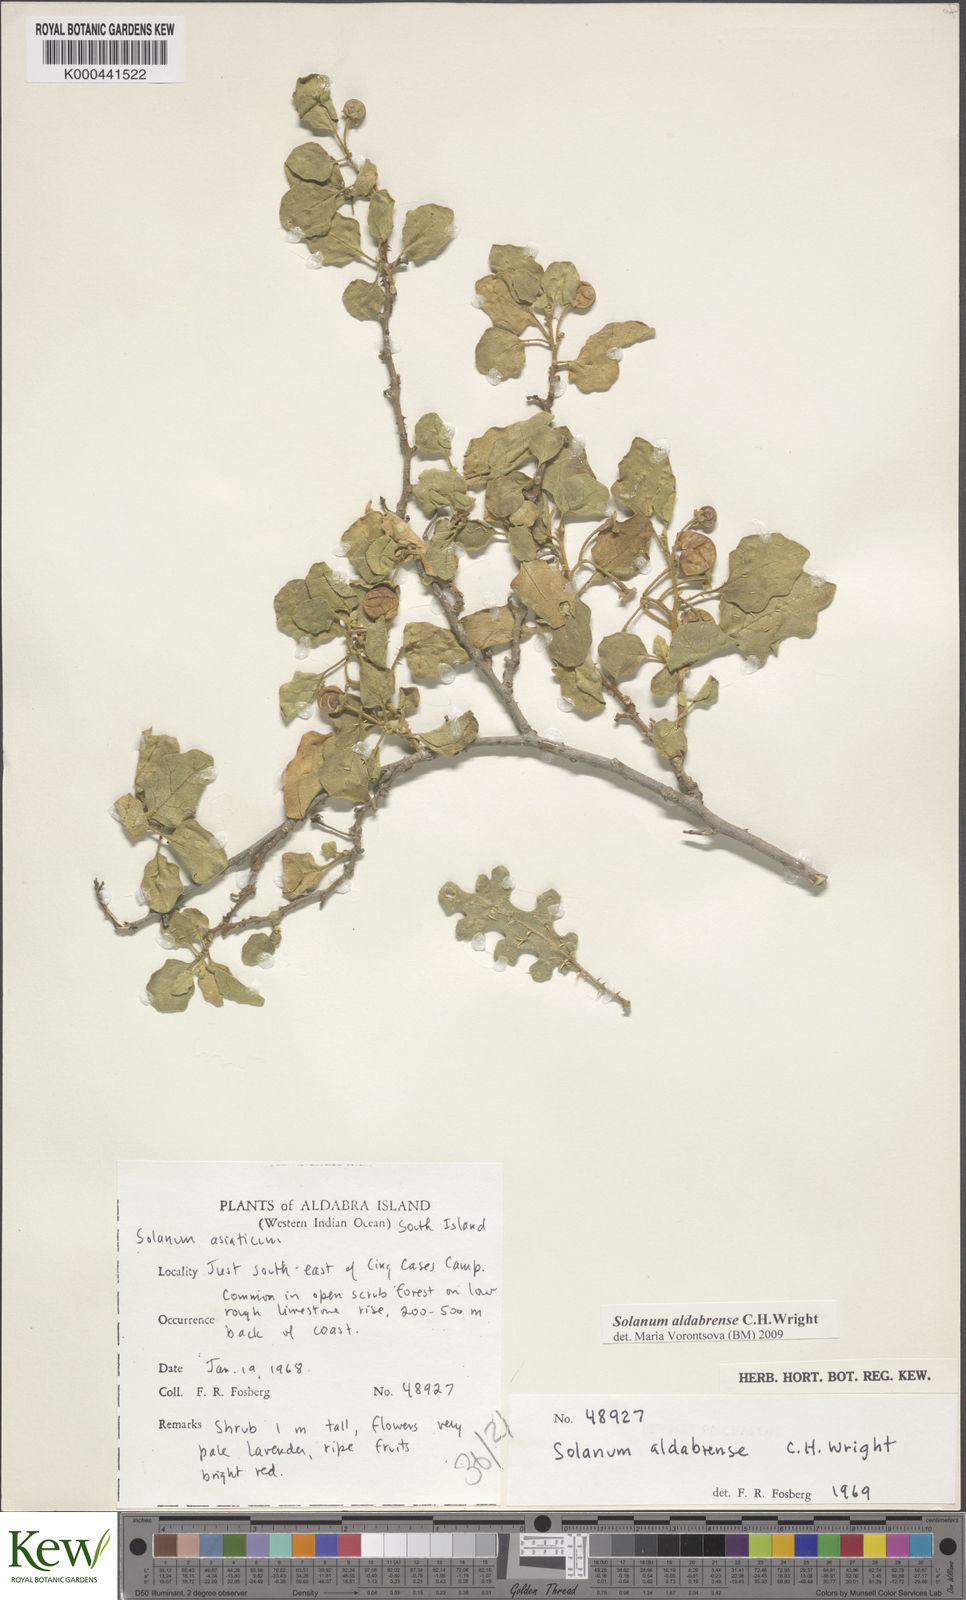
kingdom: Plantae
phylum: Tracheophyta
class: Magnoliopsida
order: Solanales
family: Solanaceae
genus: Solanum
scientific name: Solanum aldabrense
